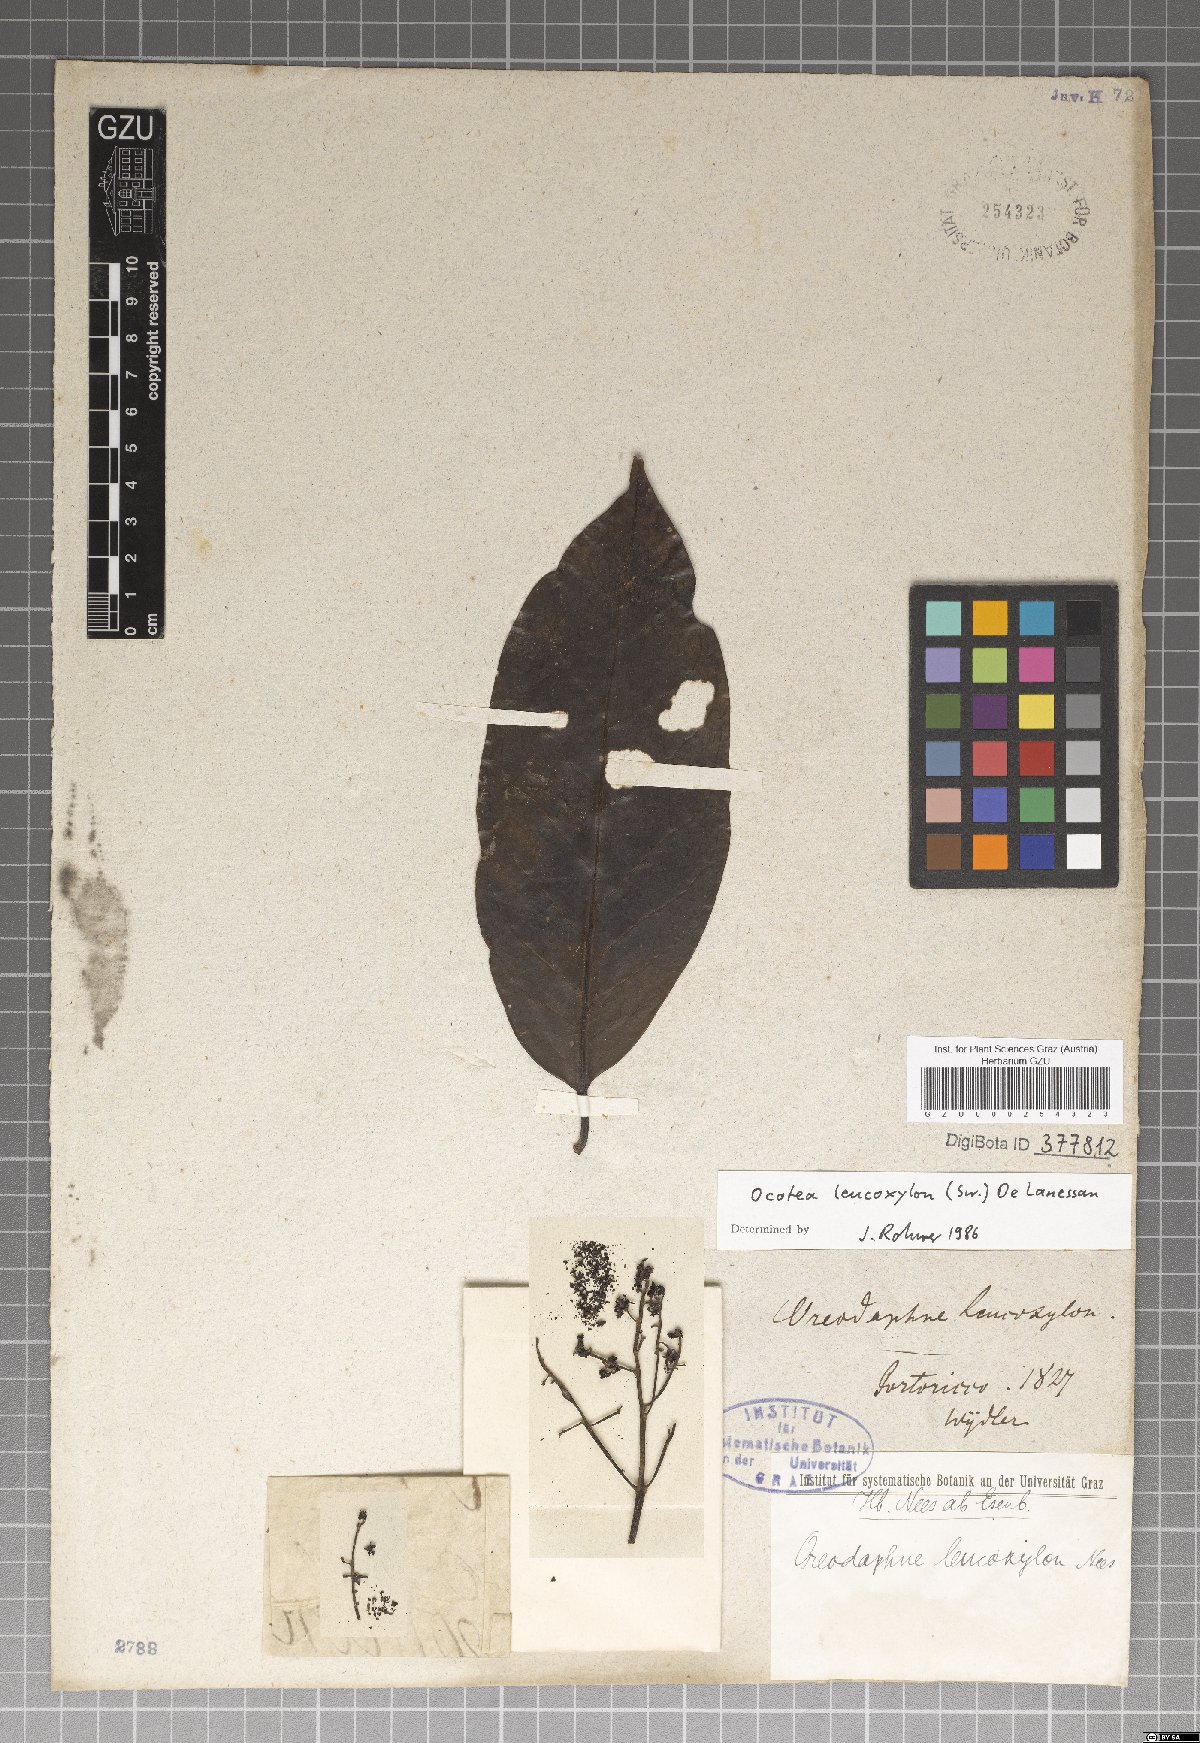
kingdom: Plantae
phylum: Tracheophyta
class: Magnoliopsida
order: Laurales
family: Lauraceae
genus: Ocotea
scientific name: Ocotea leucoxylon
